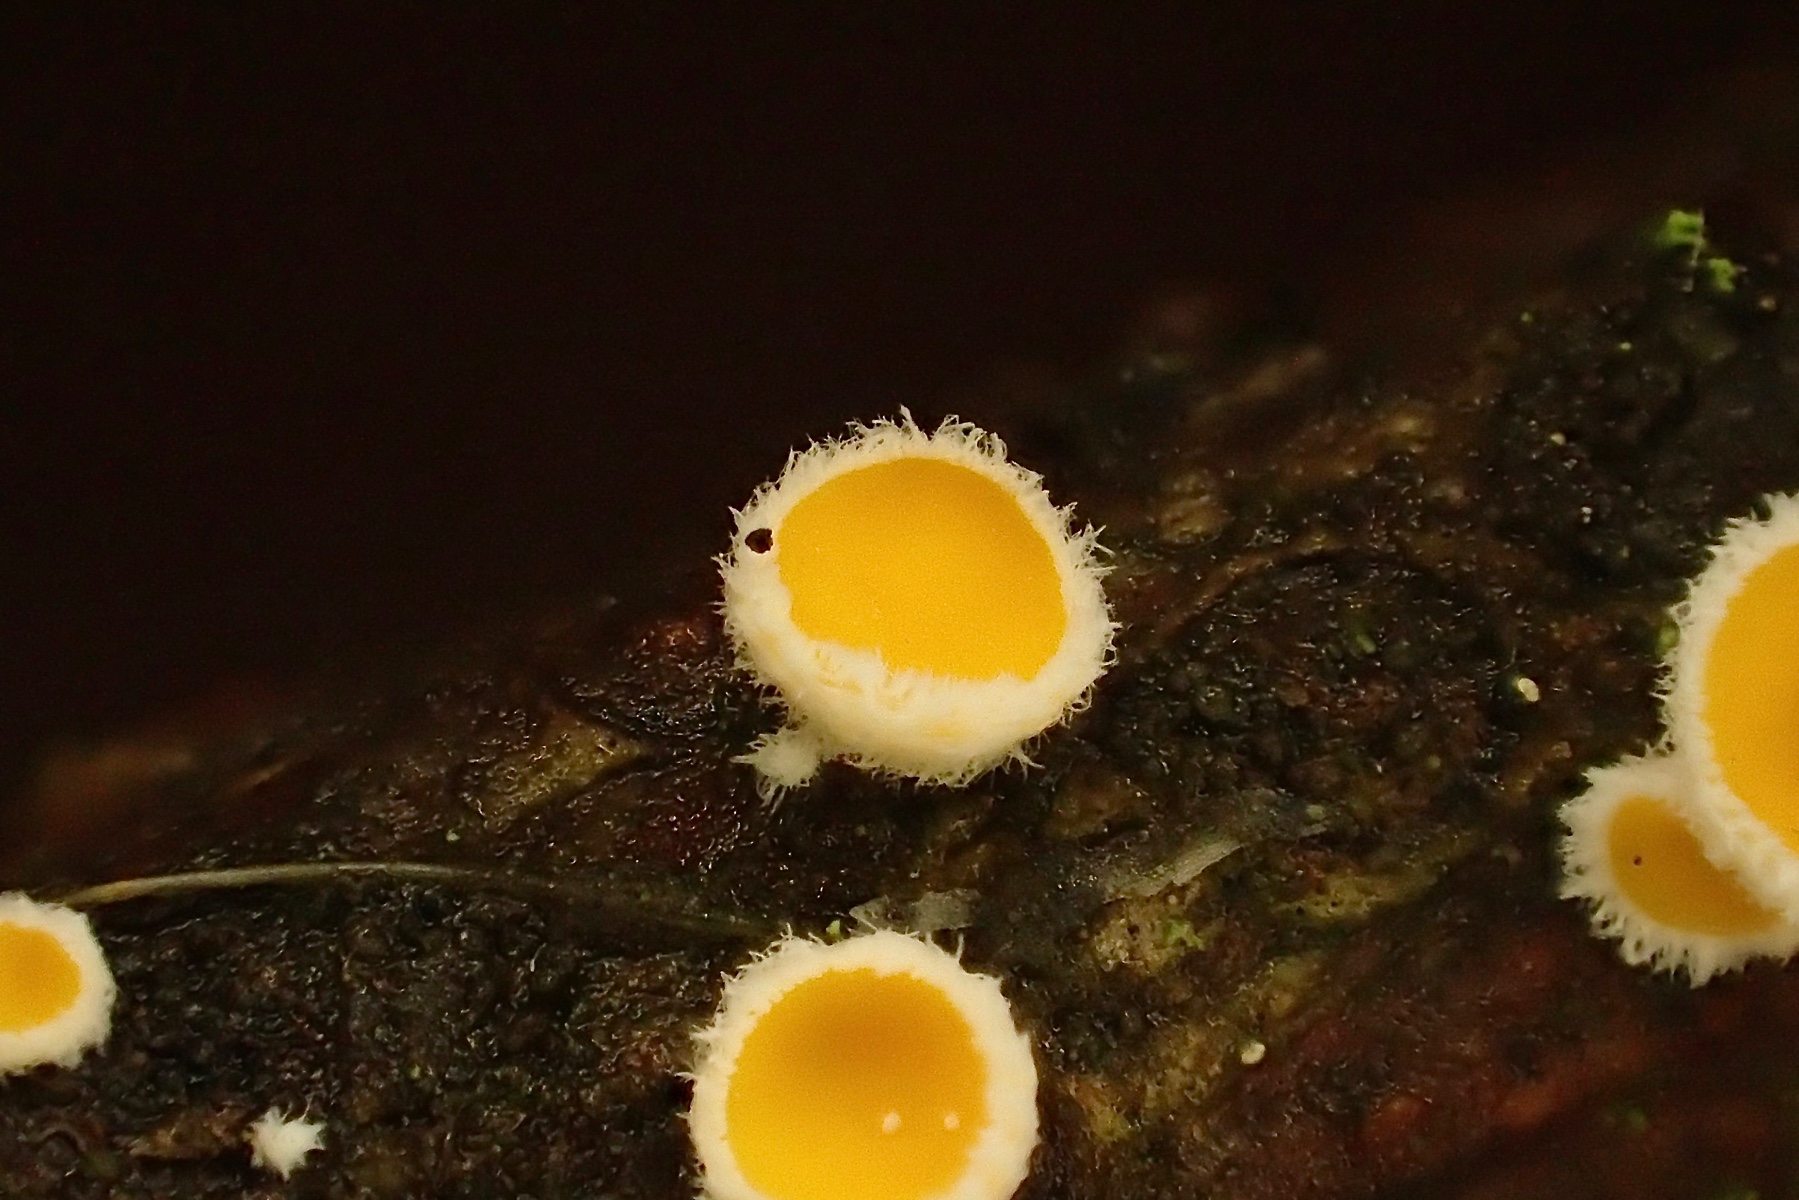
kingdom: Fungi
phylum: Ascomycota
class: Leotiomycetes
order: Helotiales
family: Lachnaceae
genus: Perrotia
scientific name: Perrotia gallica
